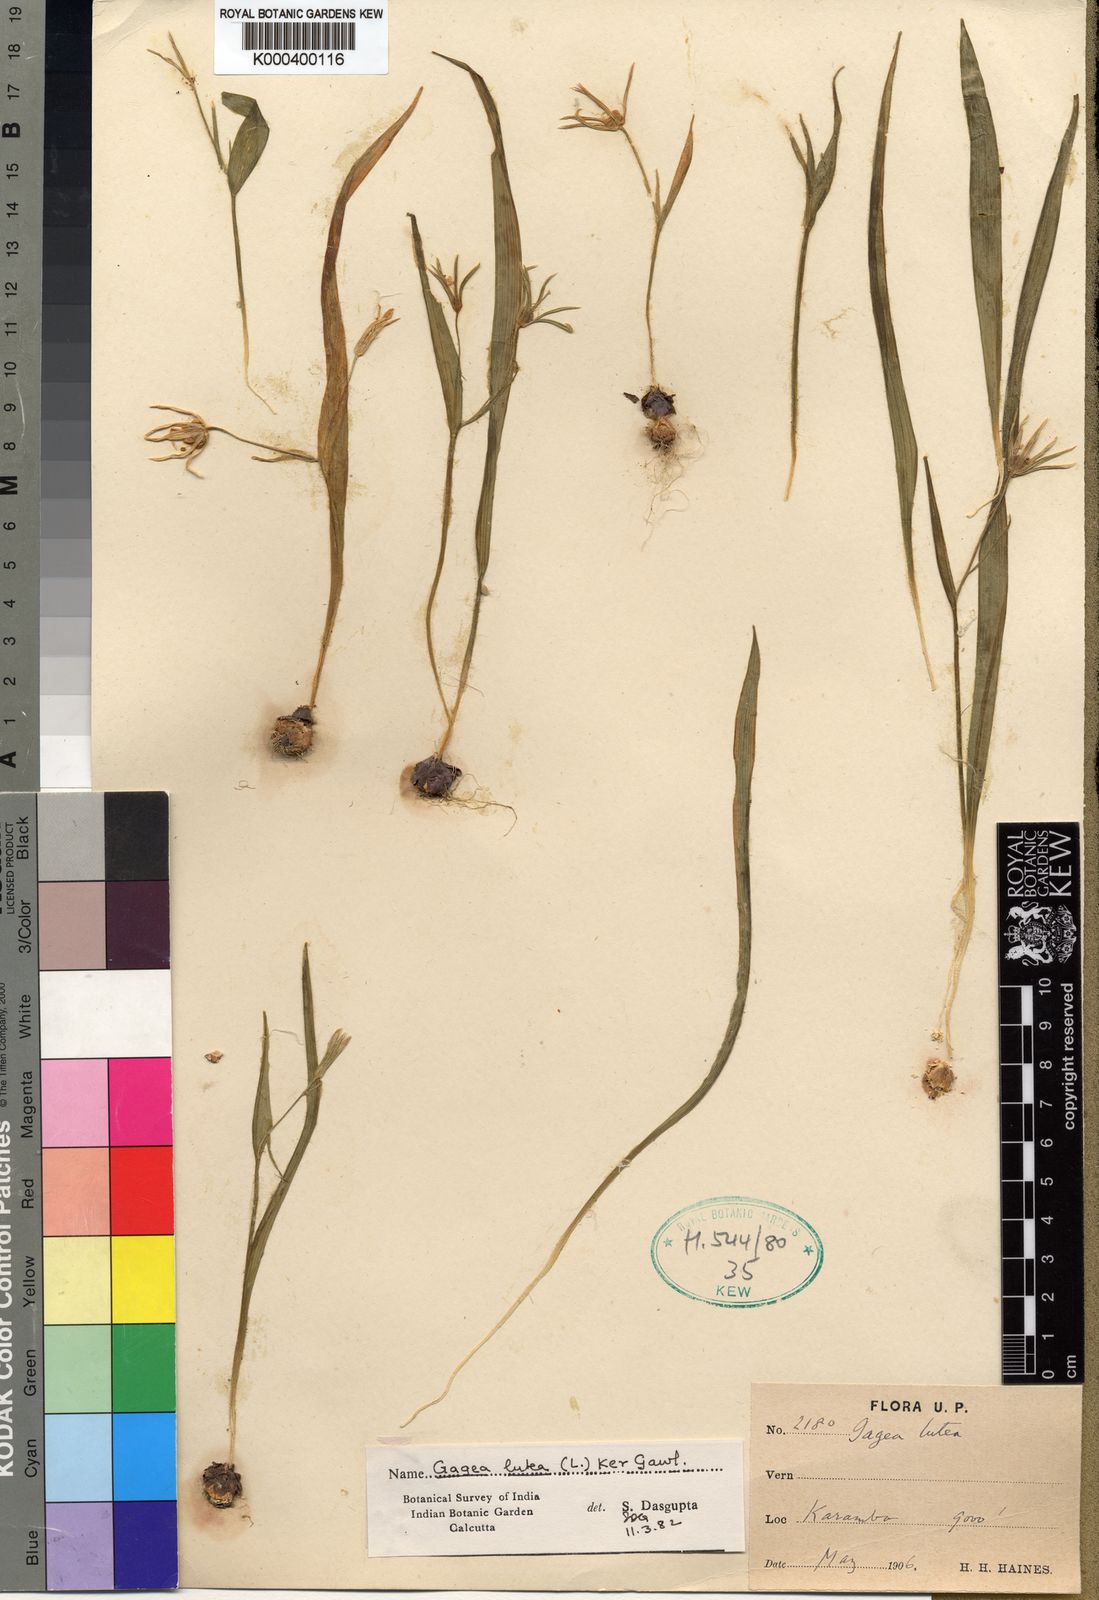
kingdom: Plantae
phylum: Tracheophyta
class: Liliopsida
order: Liliales
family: Liliaceae
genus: Gagea
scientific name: Gagea lutea
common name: Yellow star-of-bethlehem
